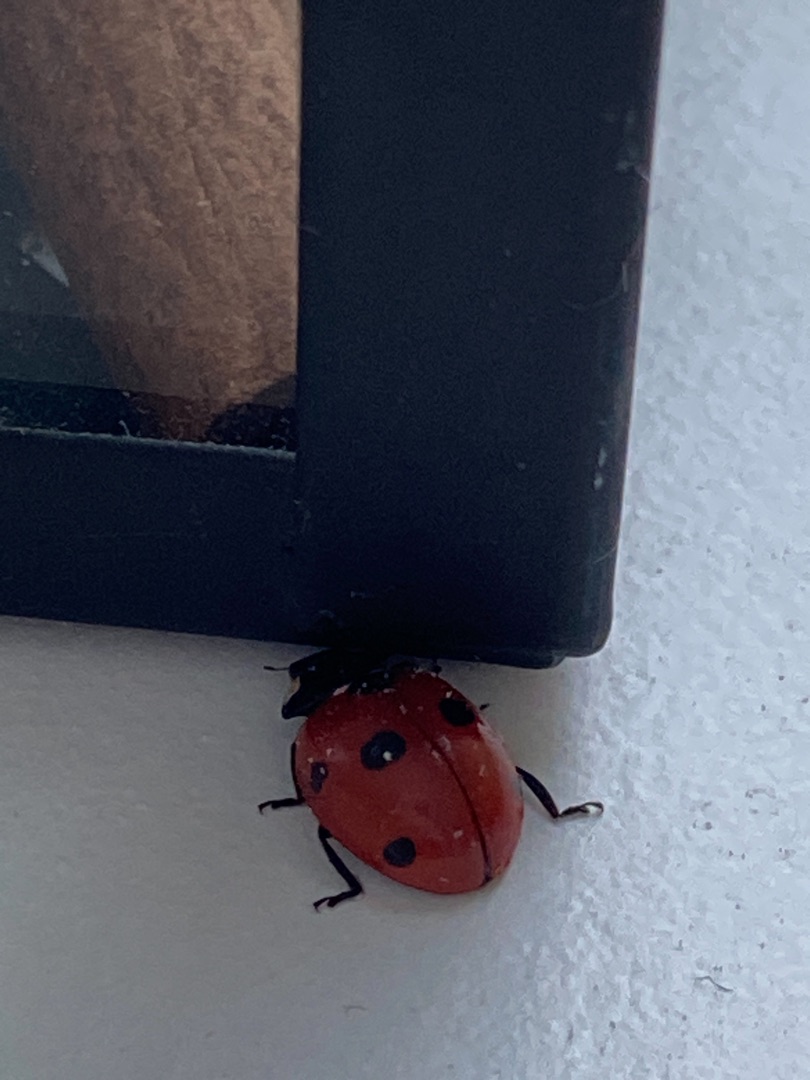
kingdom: Animalia
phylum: Arthropoda
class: Insecta
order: Coleoptera
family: Coccinellidae
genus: Coccinella
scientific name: Coccinella septempunctata
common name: Syvplettet mariehøne
